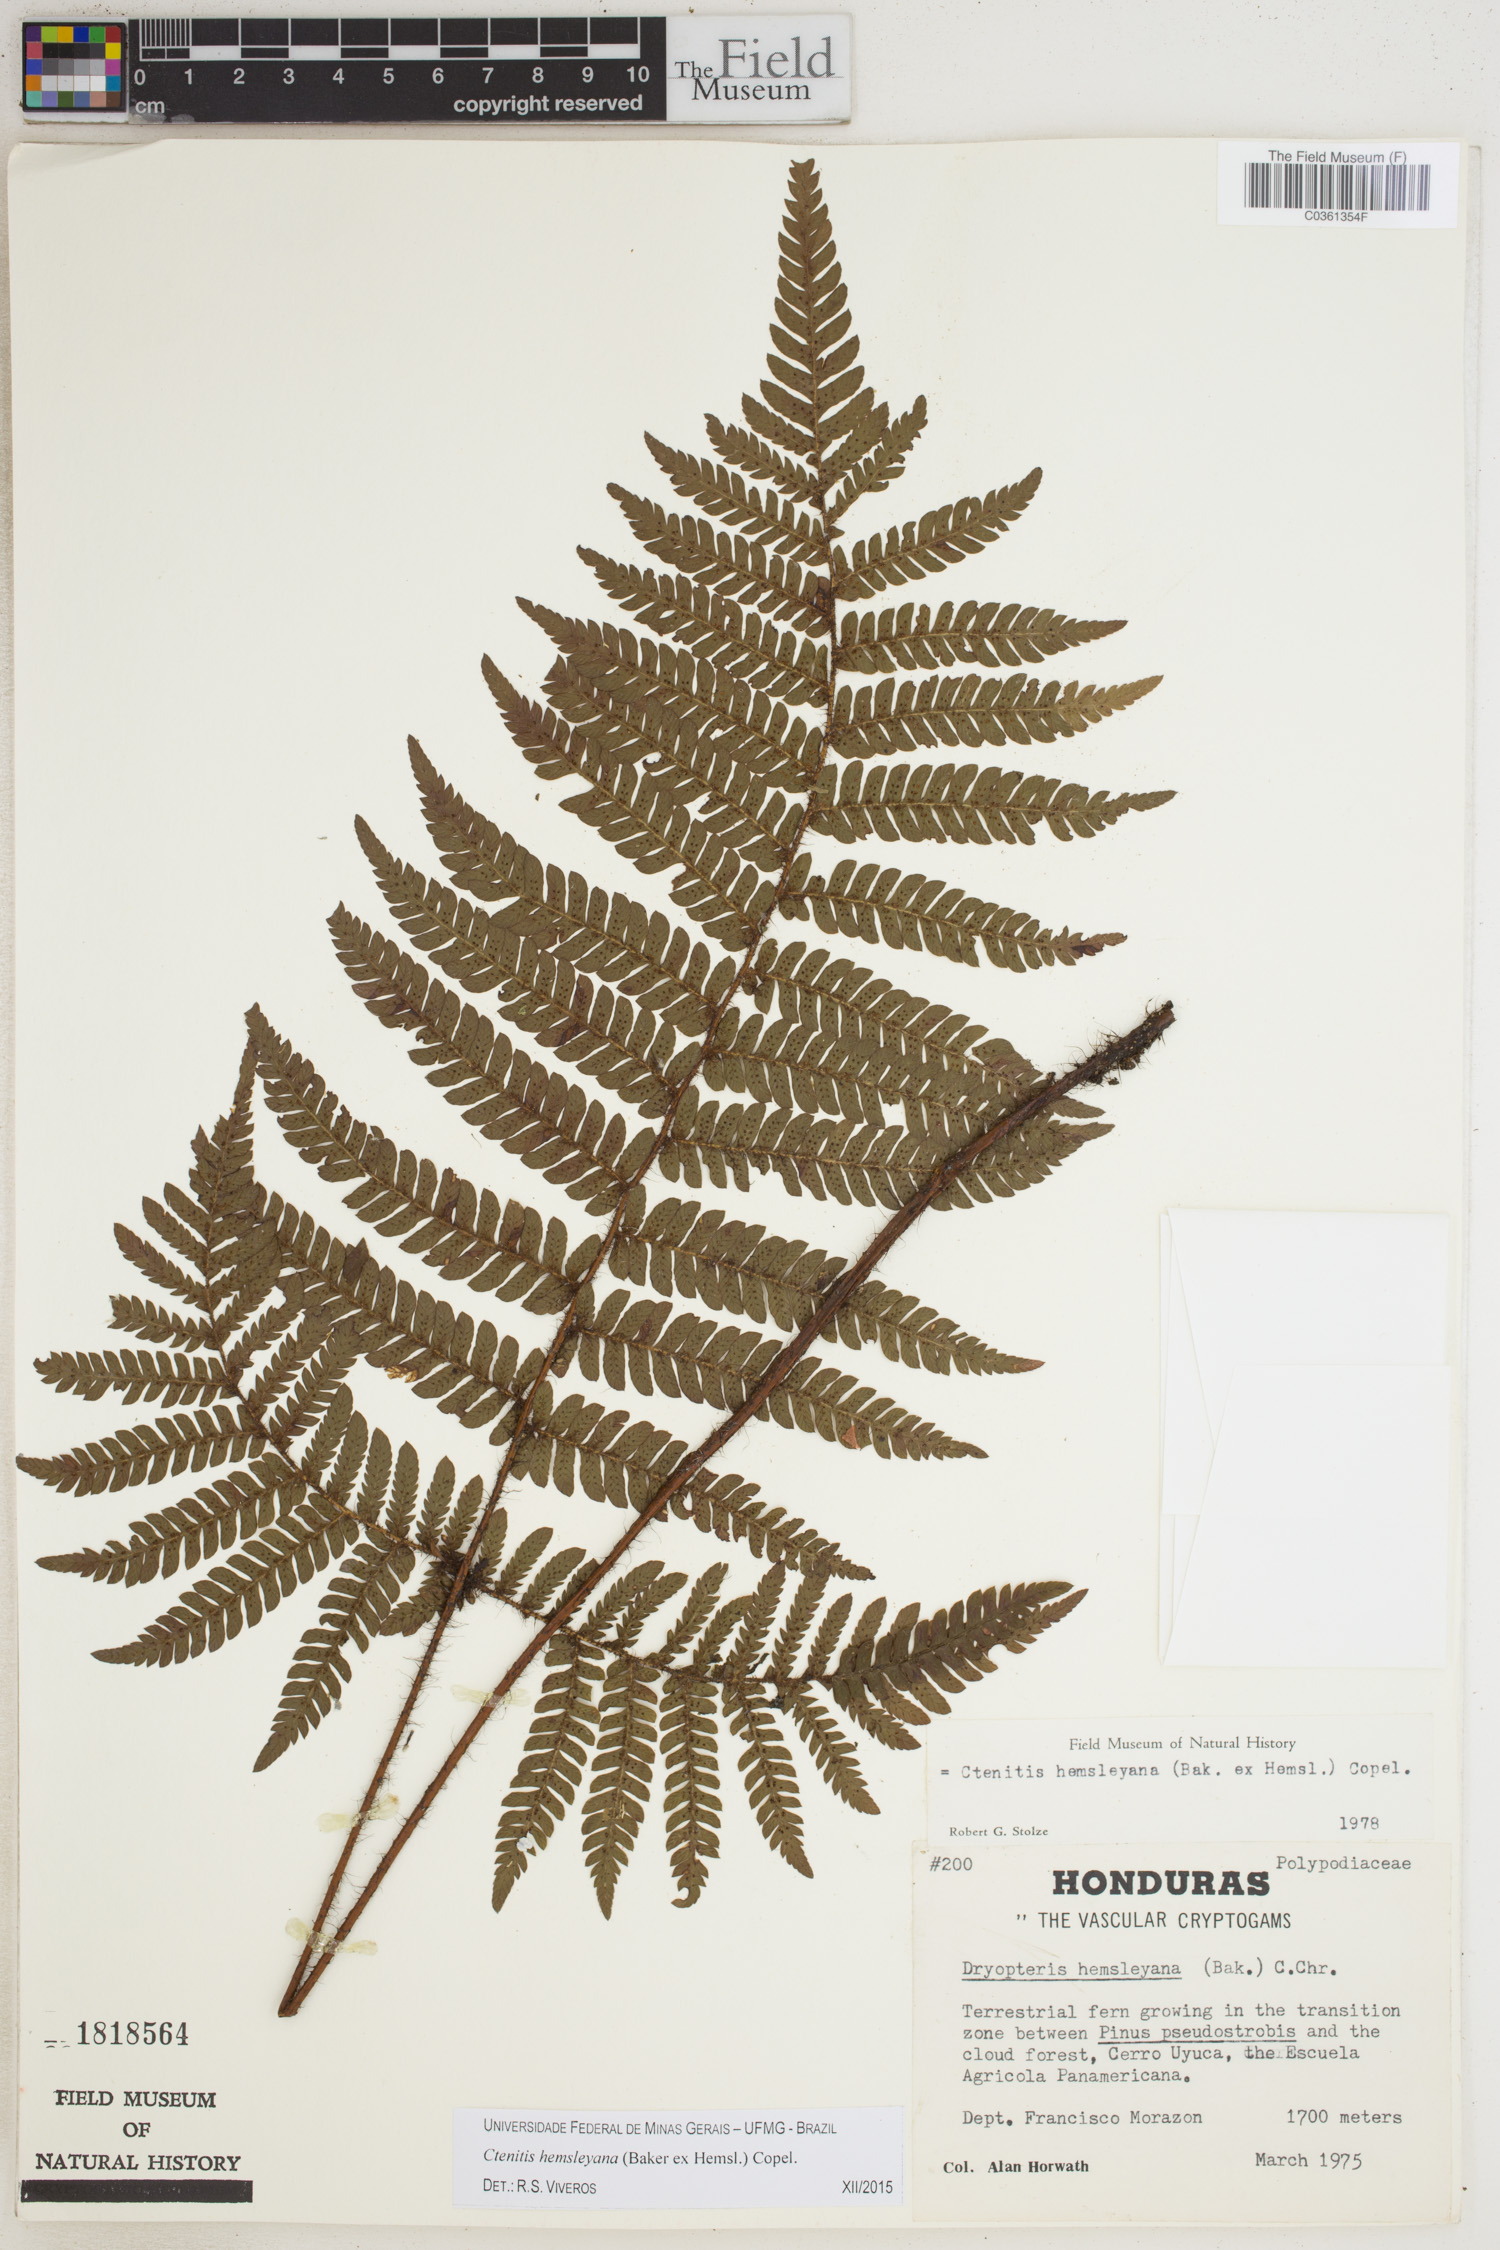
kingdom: Plantae
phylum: Tracheophyta
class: Polypodiopsida
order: Polypodiales
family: Dryopteridaceae
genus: Ctenitis
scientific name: Ctenitis hemsleyana
